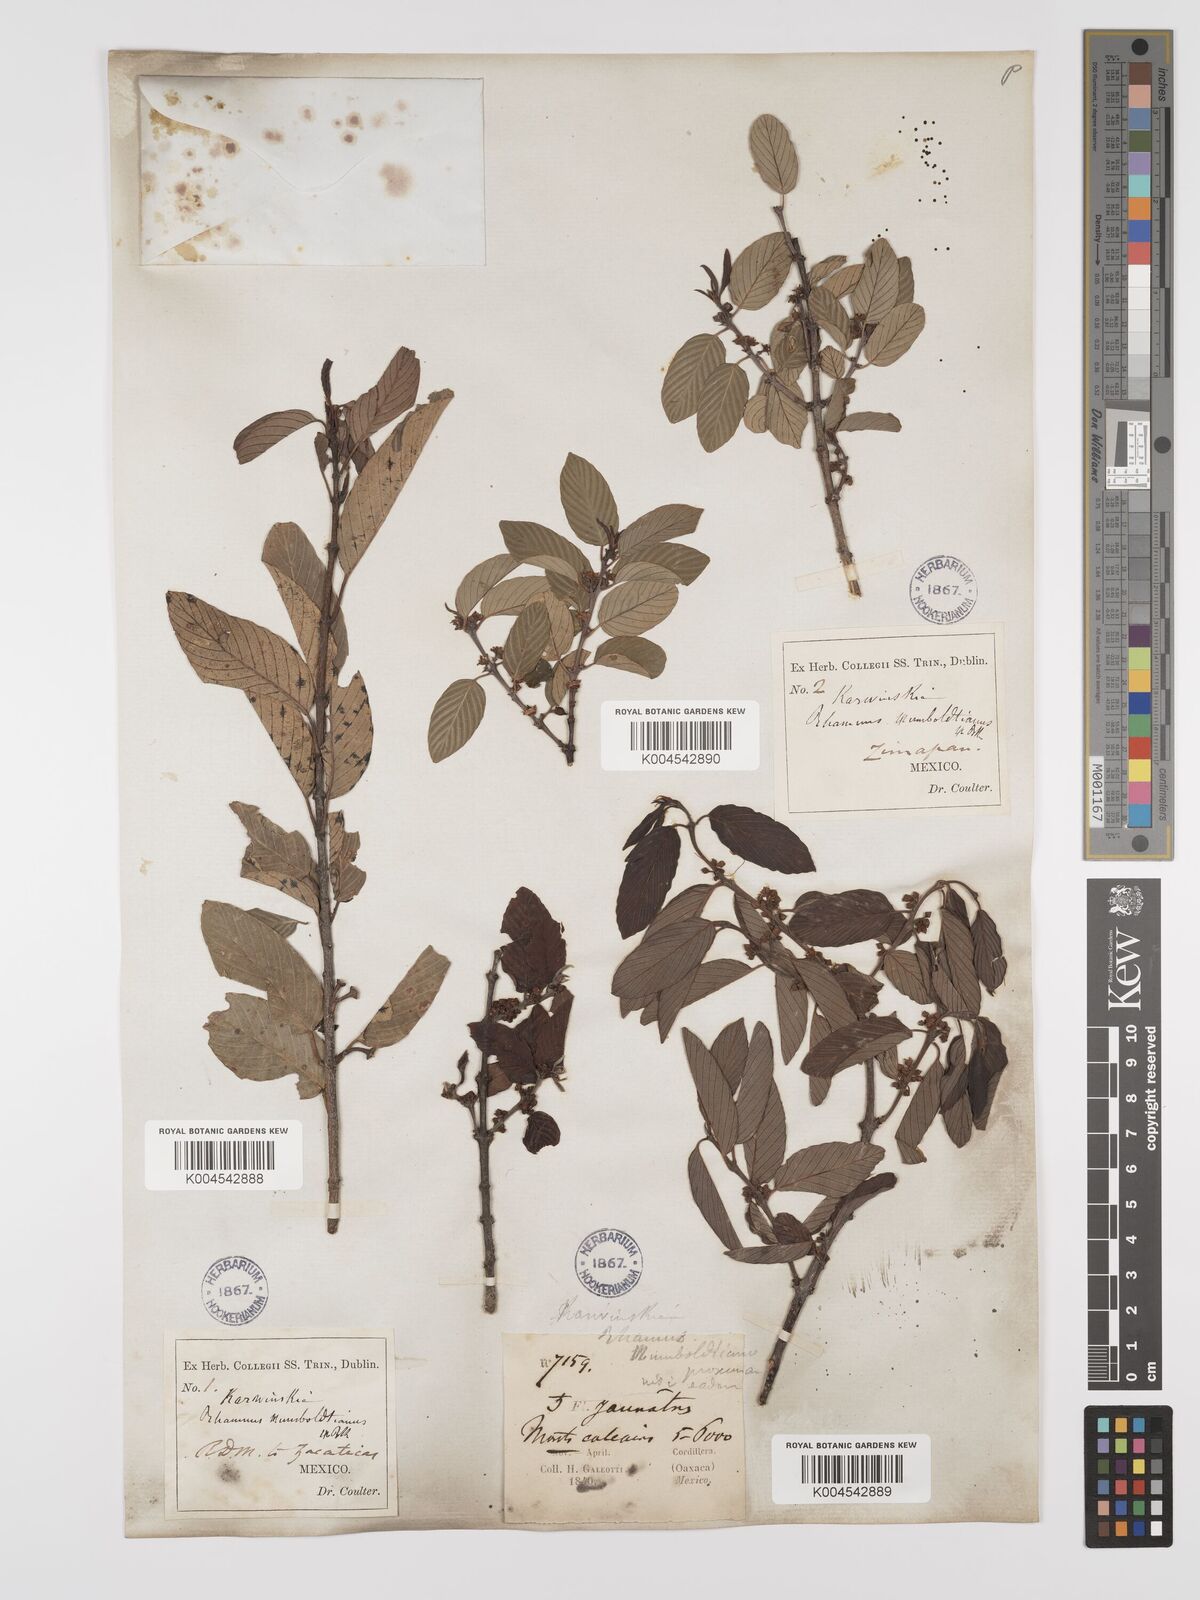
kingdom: Plantae
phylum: Tracheophyta
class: Magnoliopsida
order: Rosales
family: Rhamnaceae
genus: Karwinskia
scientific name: Karwinskia humboldtiana
